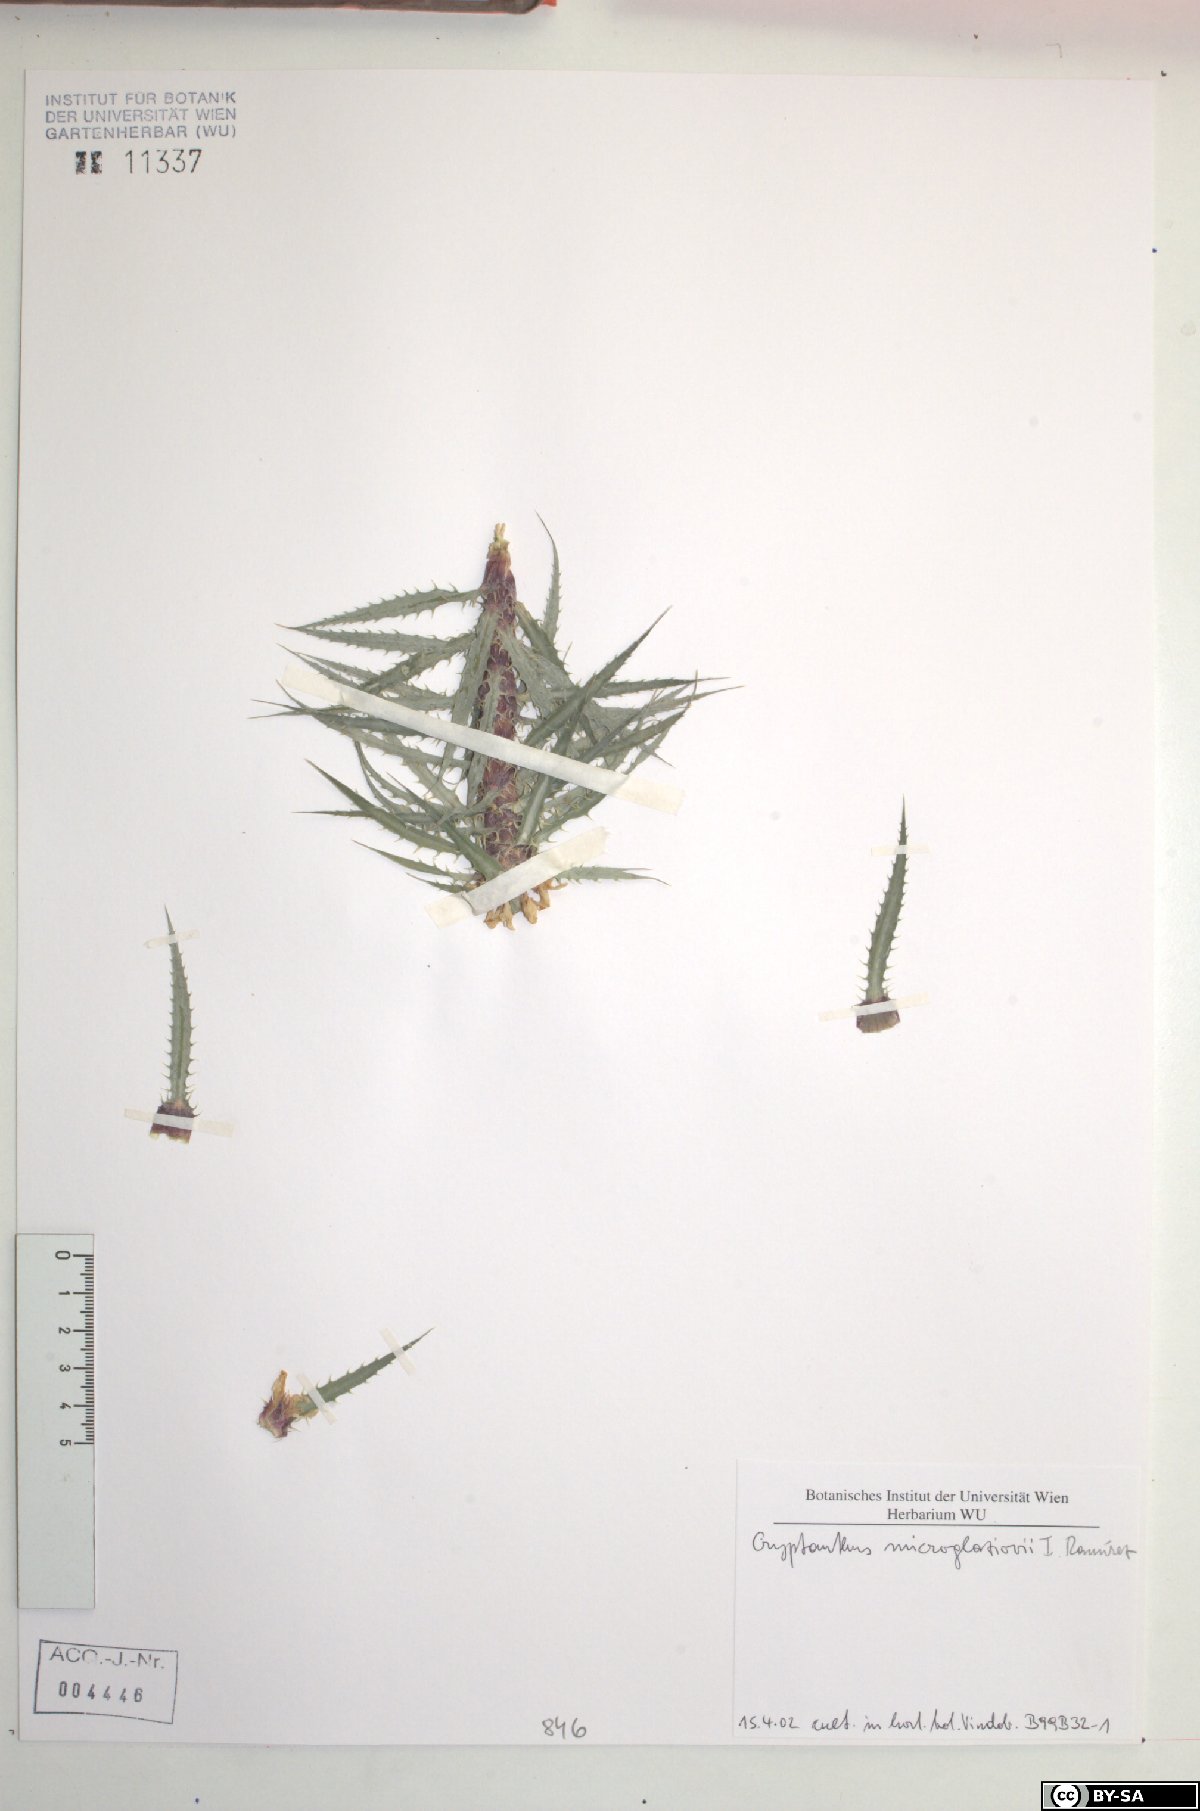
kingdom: Plantae
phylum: Tracheophyta
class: Liliopsida
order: Poales
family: Bromeliaceae
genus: Rokautskyia
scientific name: Rokautskyia microglazioui
